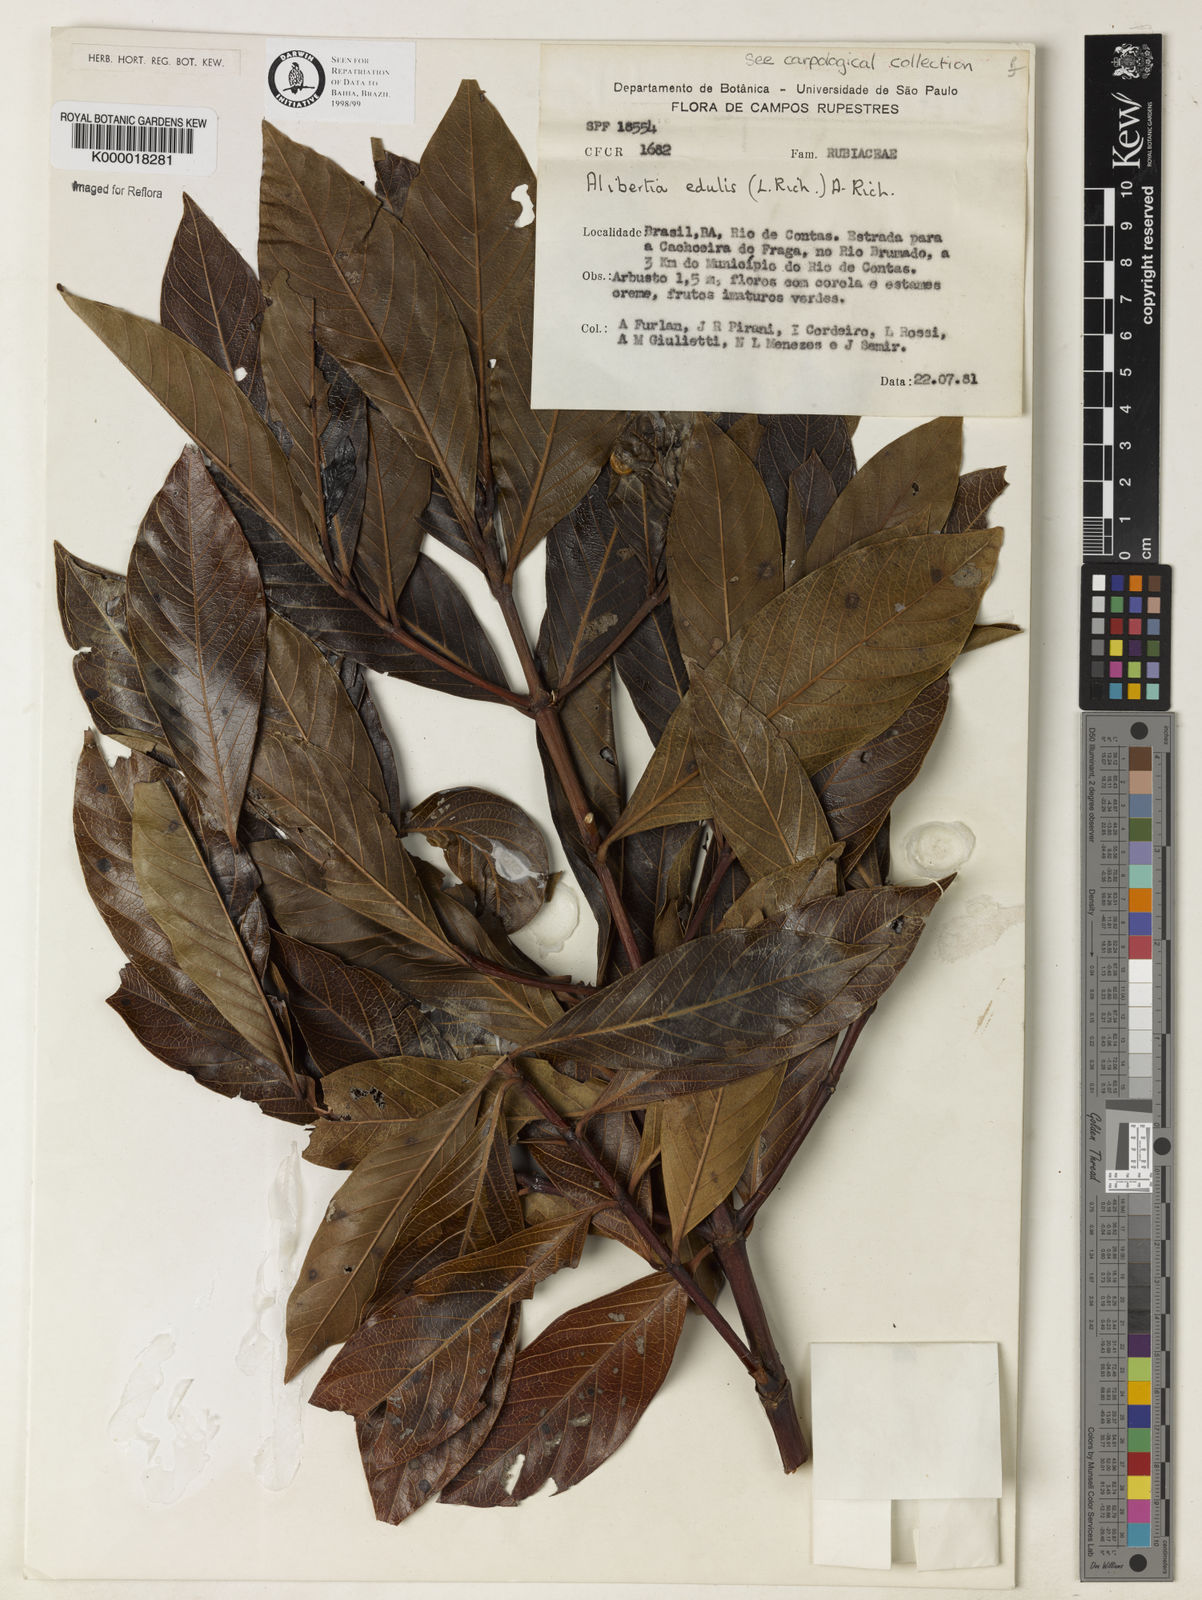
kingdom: Plantae
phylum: Tracheophyta
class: Magnoliopsida
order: Gentianales
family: Rubiaceae
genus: Alibertia
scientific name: Alibertia edulis
